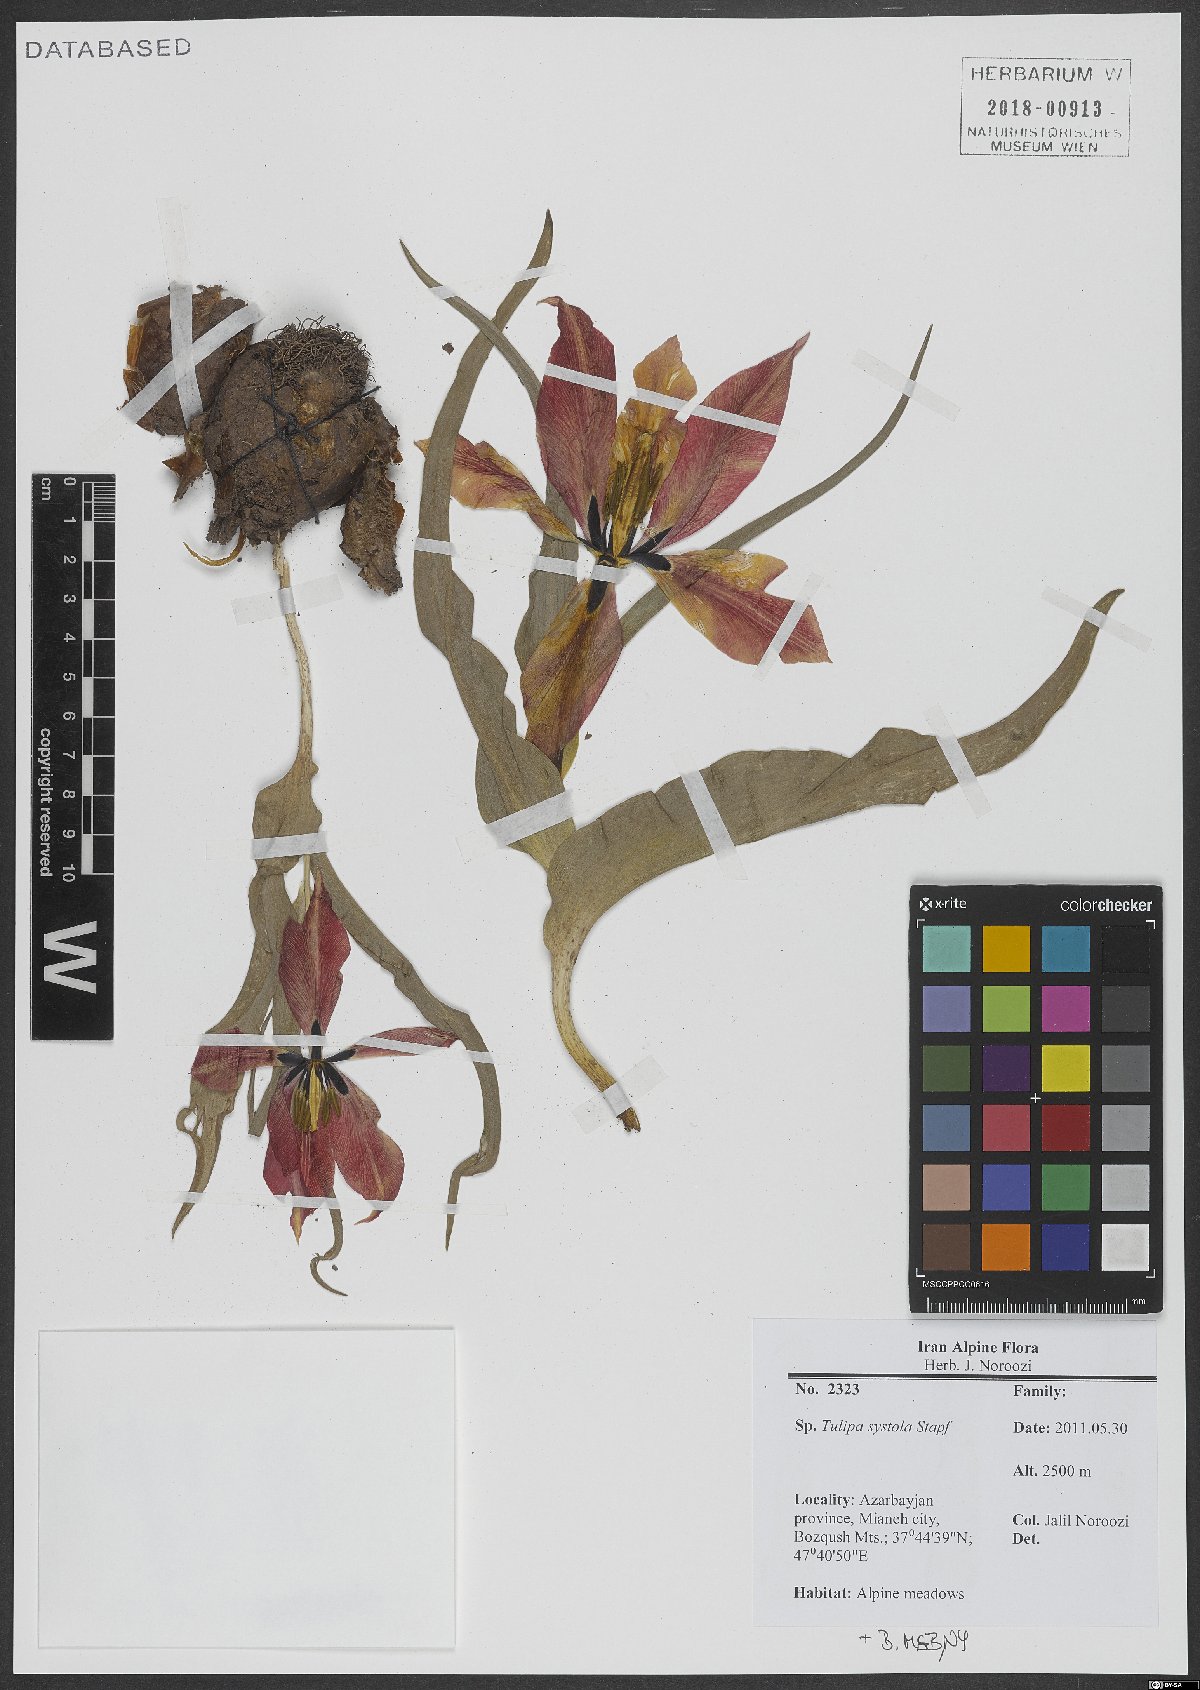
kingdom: Plantae
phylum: Tracheophyta
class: Liliopsida
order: Liliales
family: Liliaceae
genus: Tulipa
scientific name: Tulipa systola
